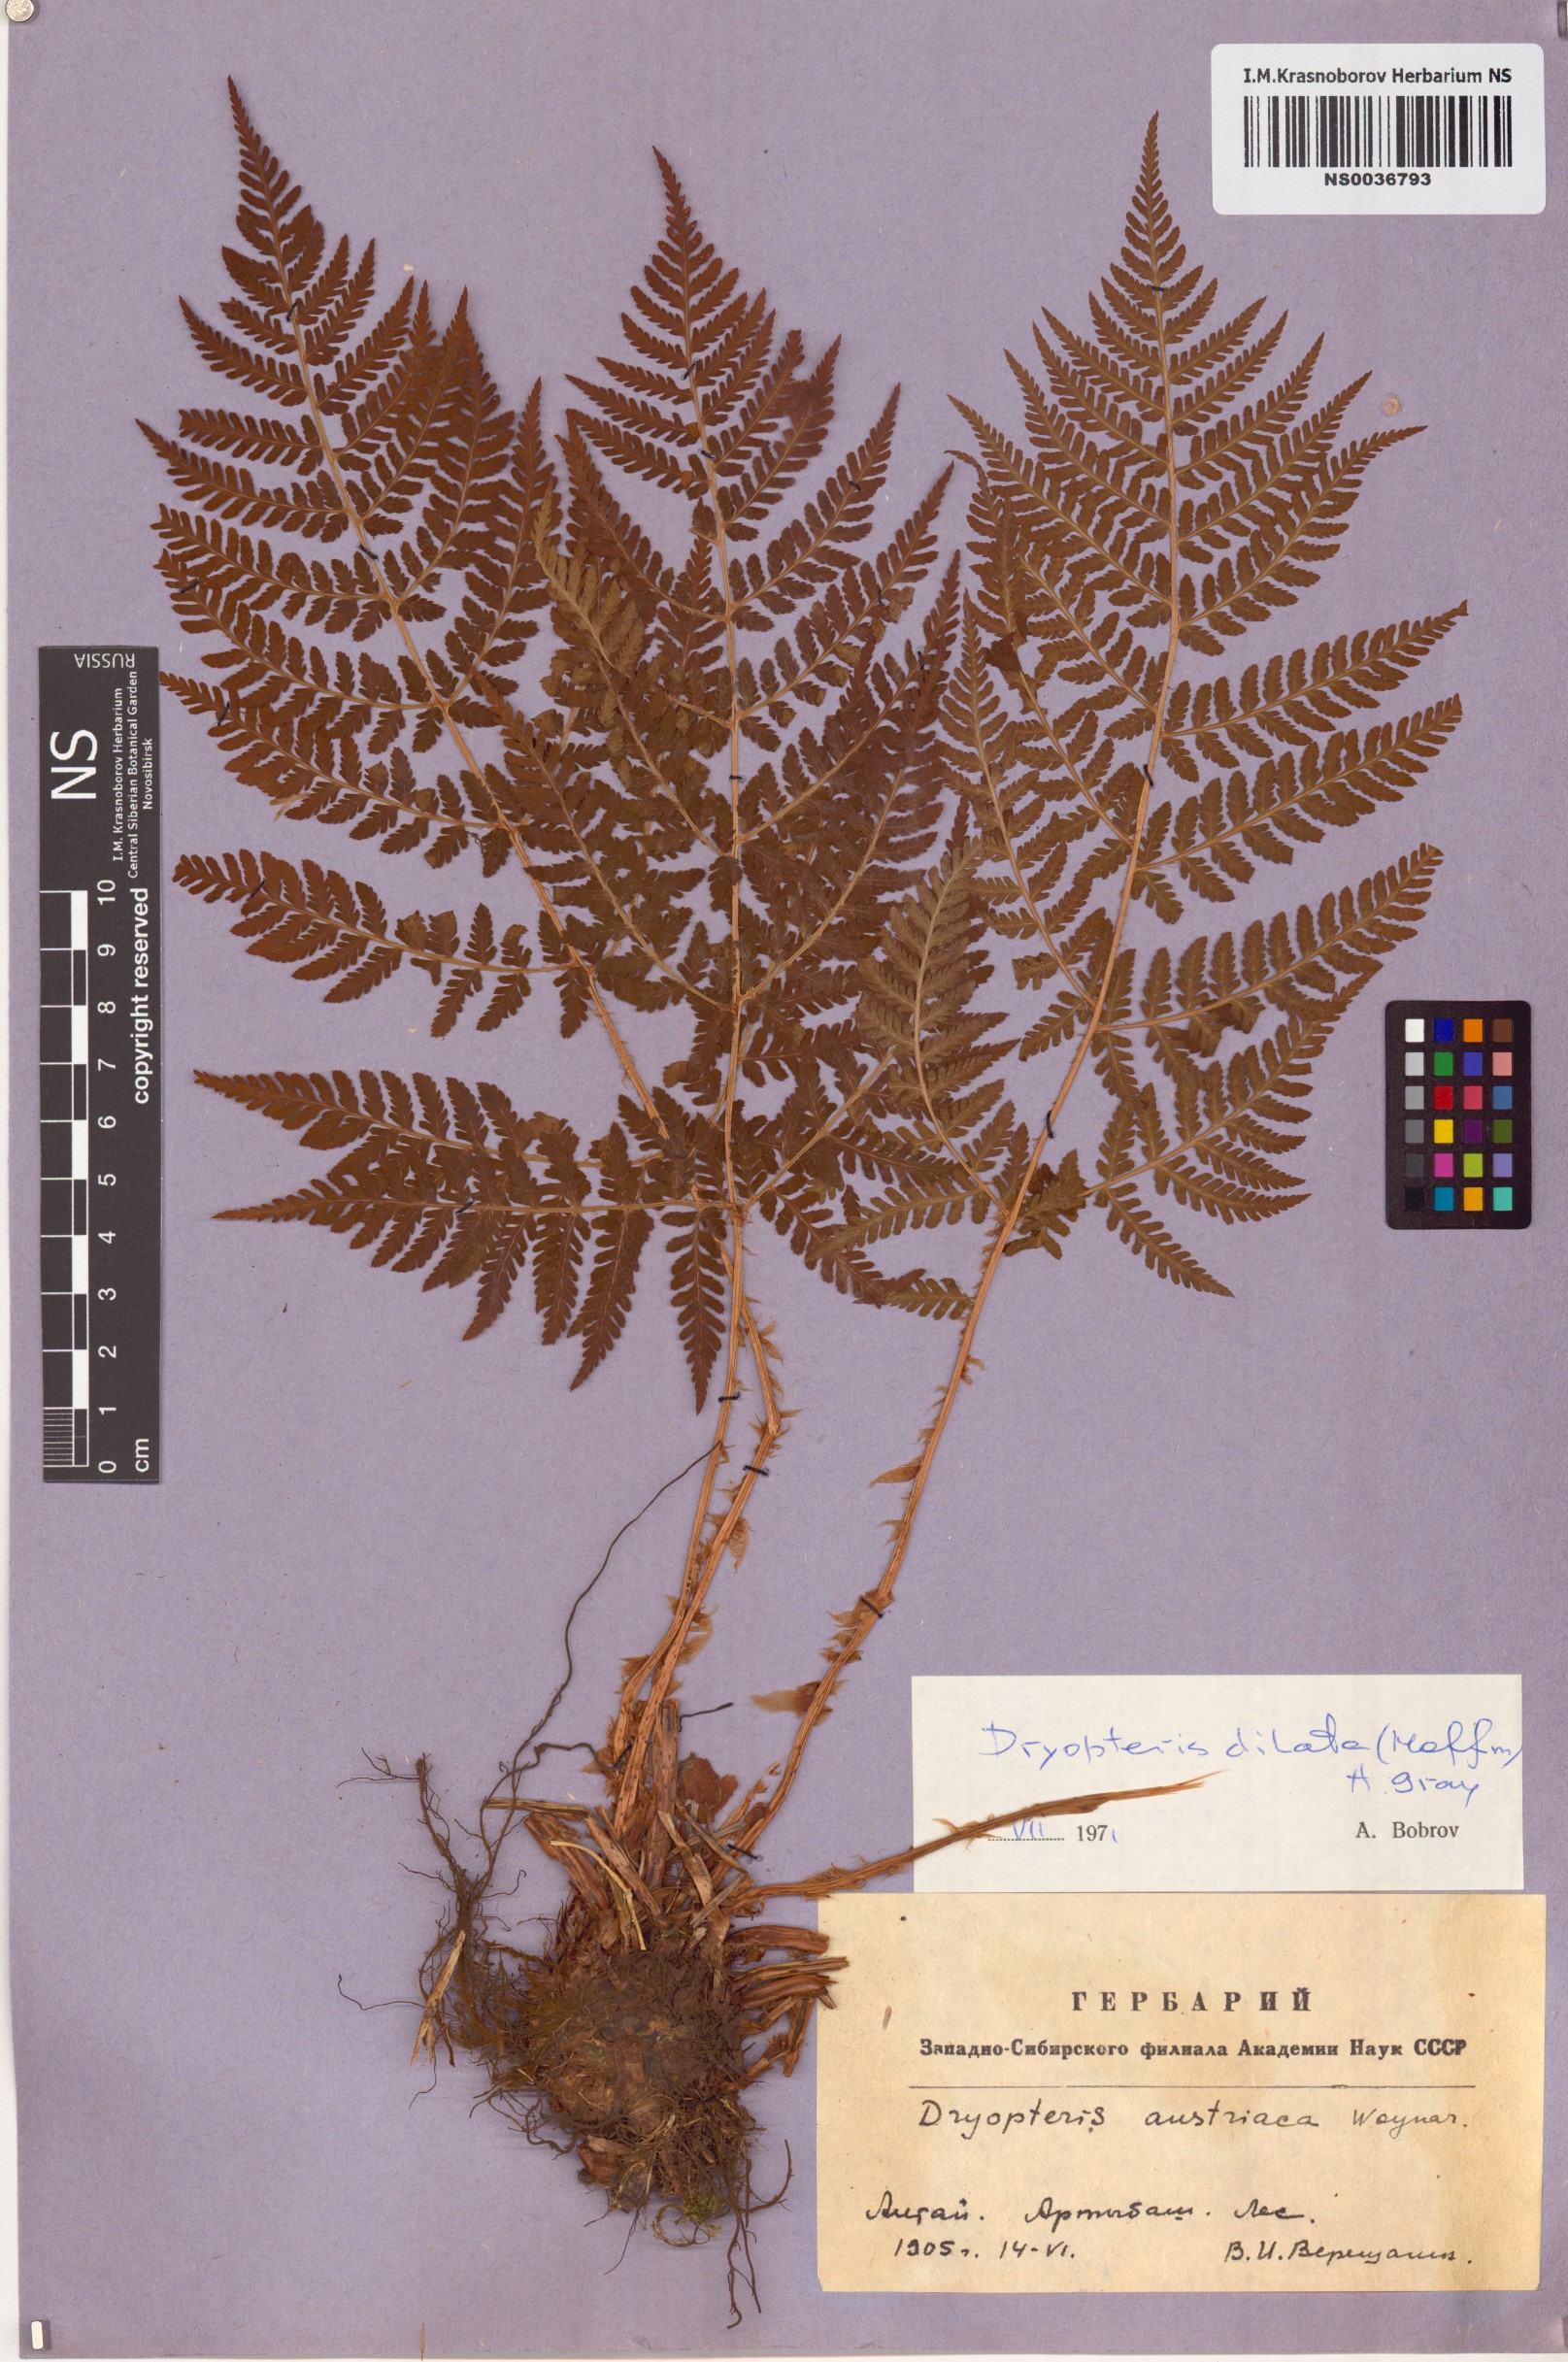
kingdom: Plantae
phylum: Tracheophyta
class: Polypodiopsida
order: Polypodiales
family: Dryopteridaceae
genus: Dryopteris
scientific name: Dryopteris dilatata
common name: Broad buckler-fern
